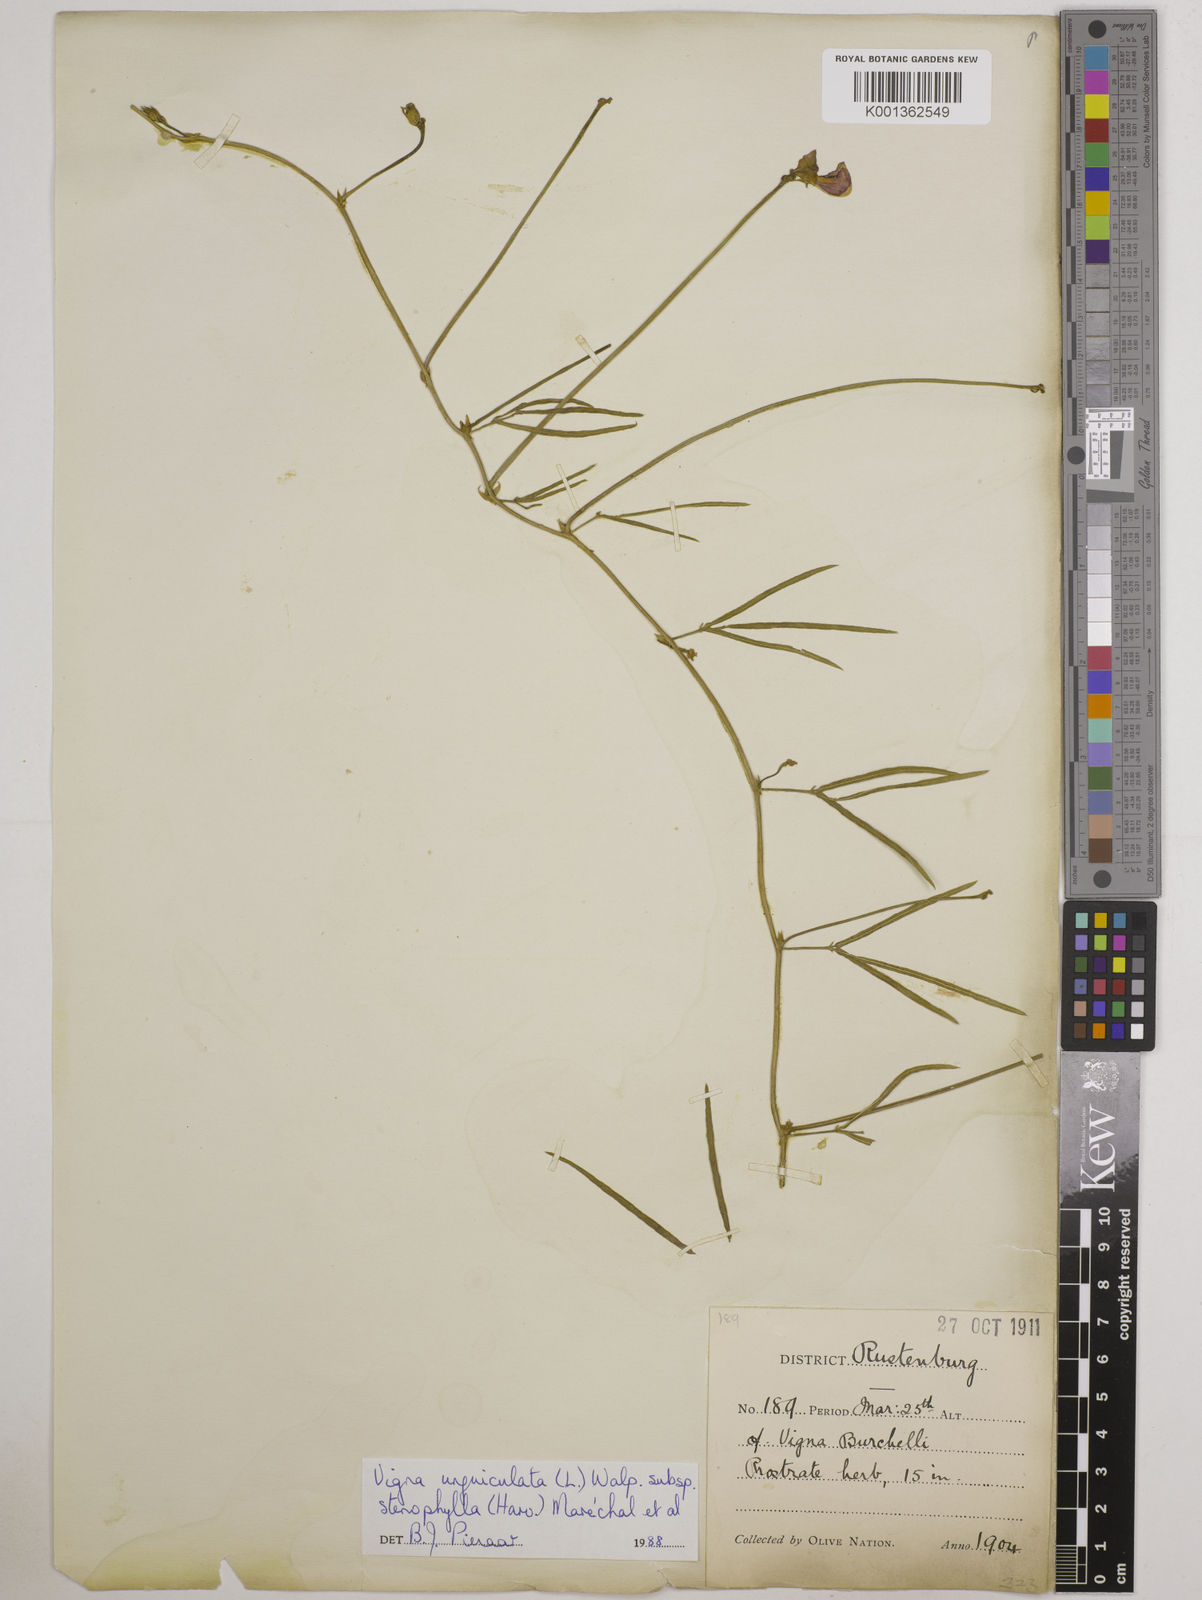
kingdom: Plantae
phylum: Tracheophyta
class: Magnoliopsida
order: Fabales
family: Fabaceae
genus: Vigna
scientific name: Vigna
